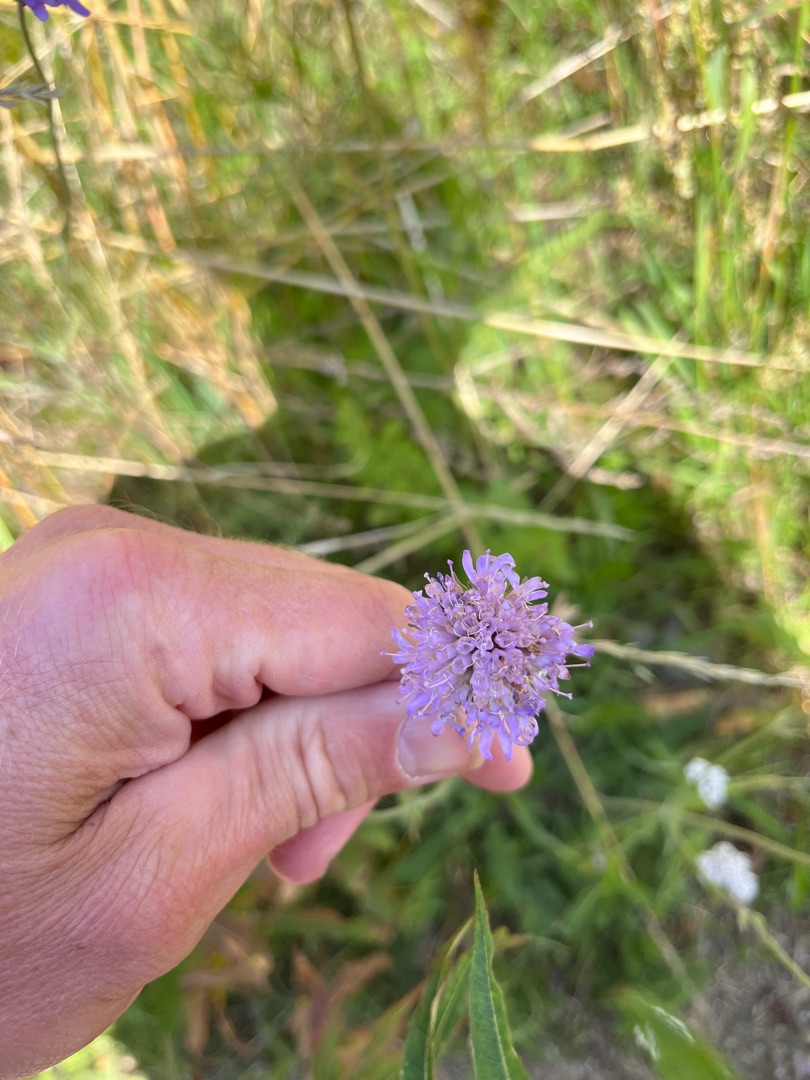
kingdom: Plantae
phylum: Tracheophyta
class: Magnoliopsida
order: Dipsacales
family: Caprifoliaceae
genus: Knautia
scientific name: Knautia arvensis
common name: Blåhat
